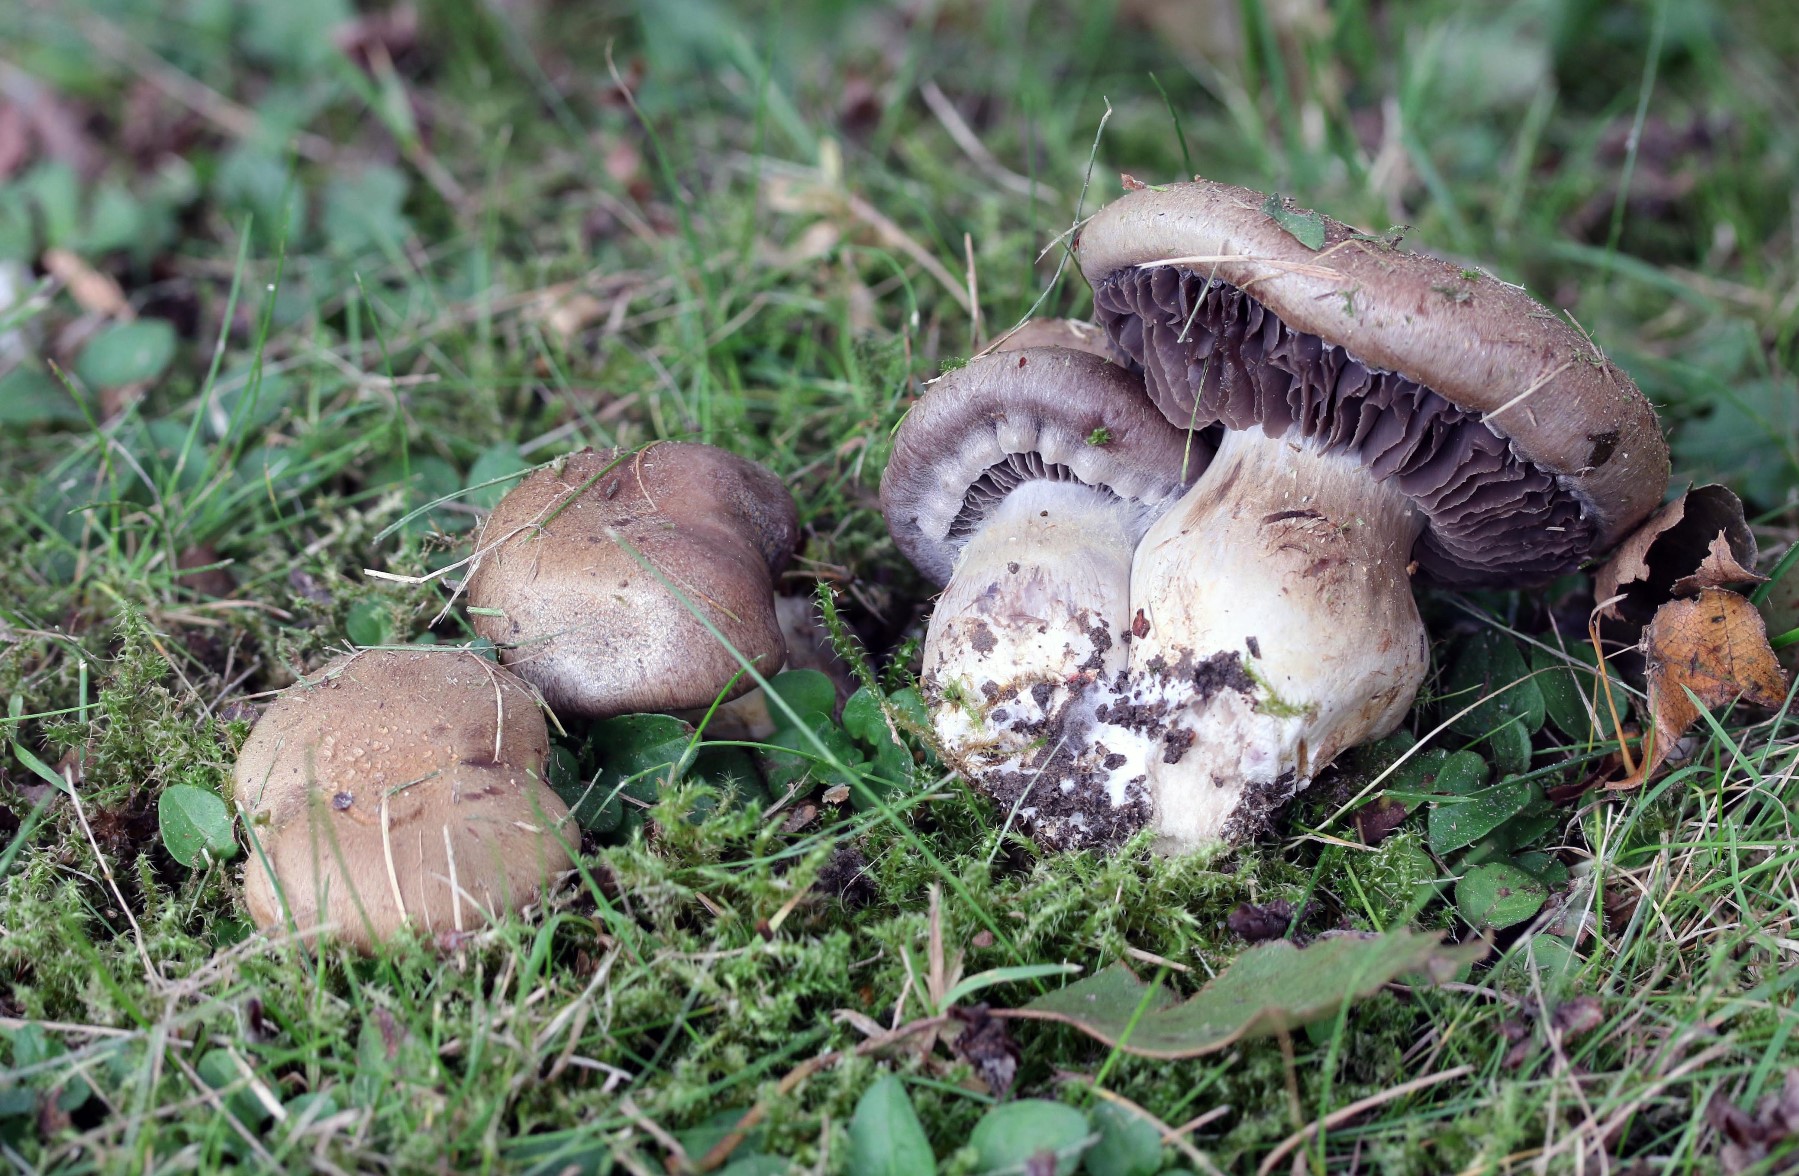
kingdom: Fungi
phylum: Basidiomycota
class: Agaricomycetes
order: Agaricales
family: Cortinariaceae
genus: Cortinarius
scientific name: Cortinarius
